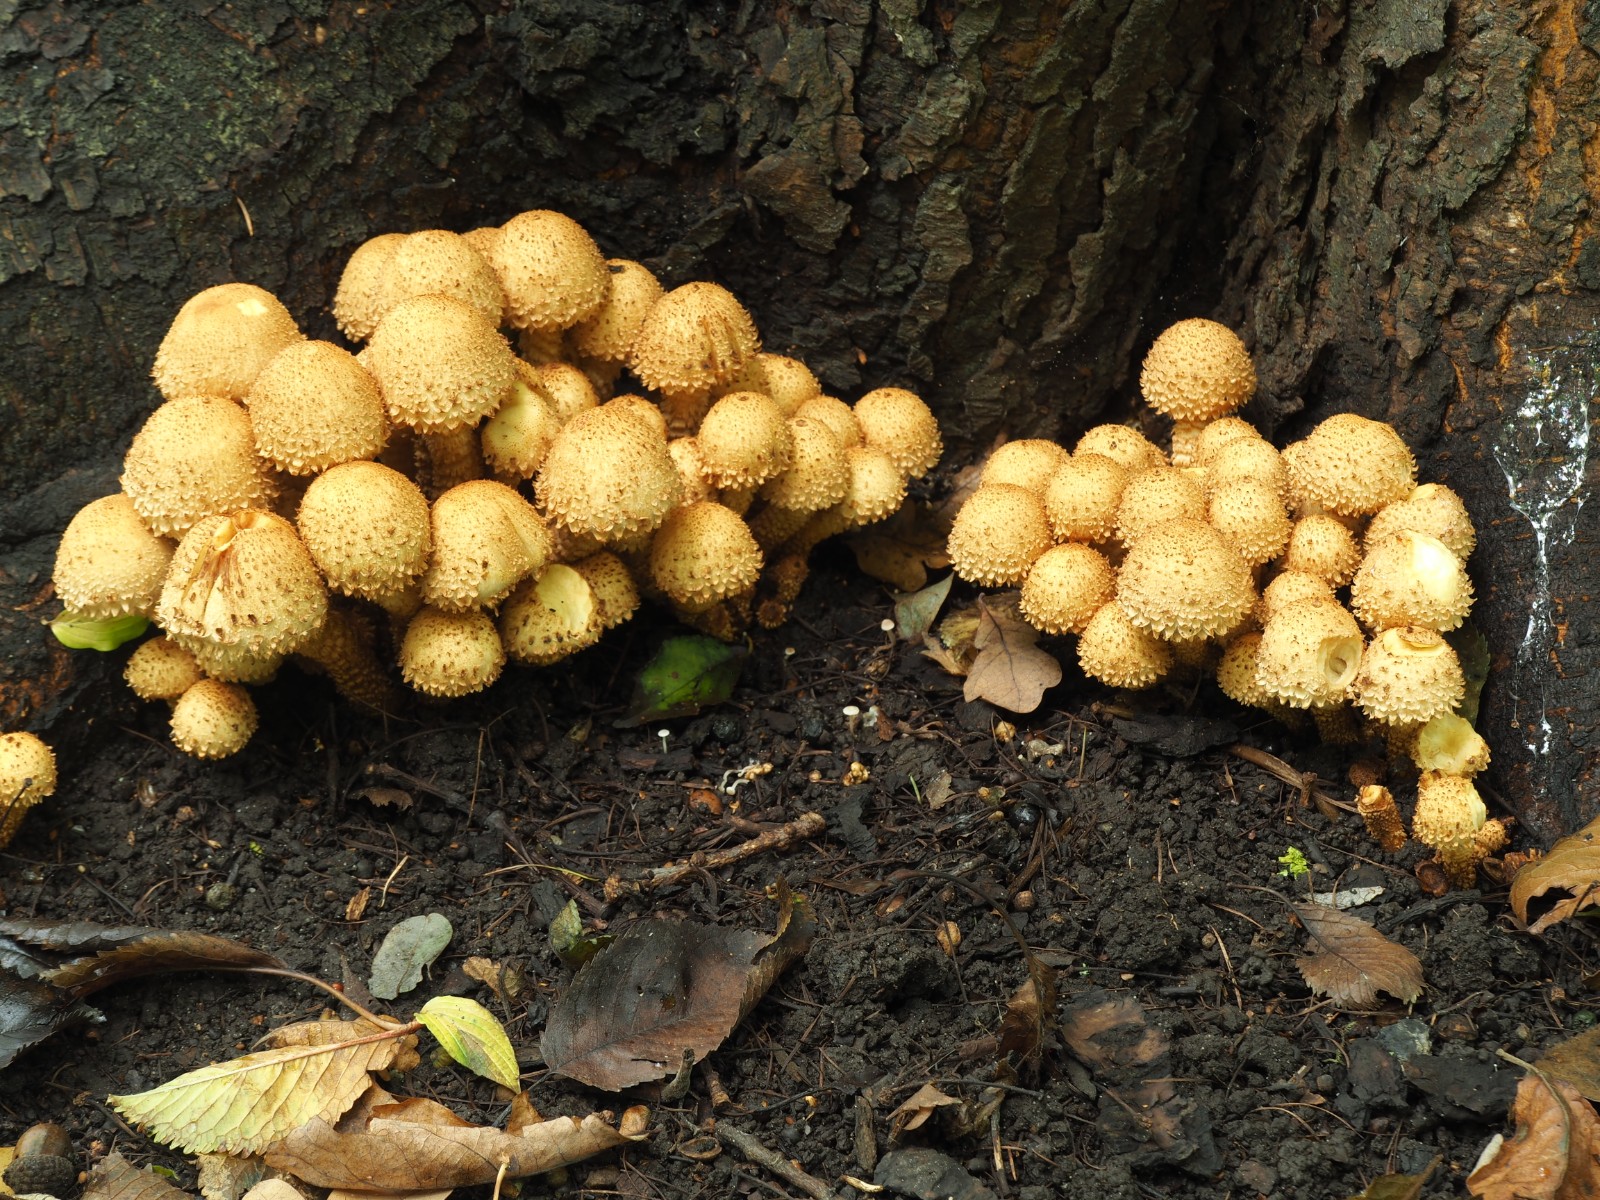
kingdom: Fungi
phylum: Basidiomycota
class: Agaricomycetes
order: Agaricales
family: Strophariaceae
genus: Pholiota
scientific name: Pholiota squarrosa
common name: krumskællet skælhat
